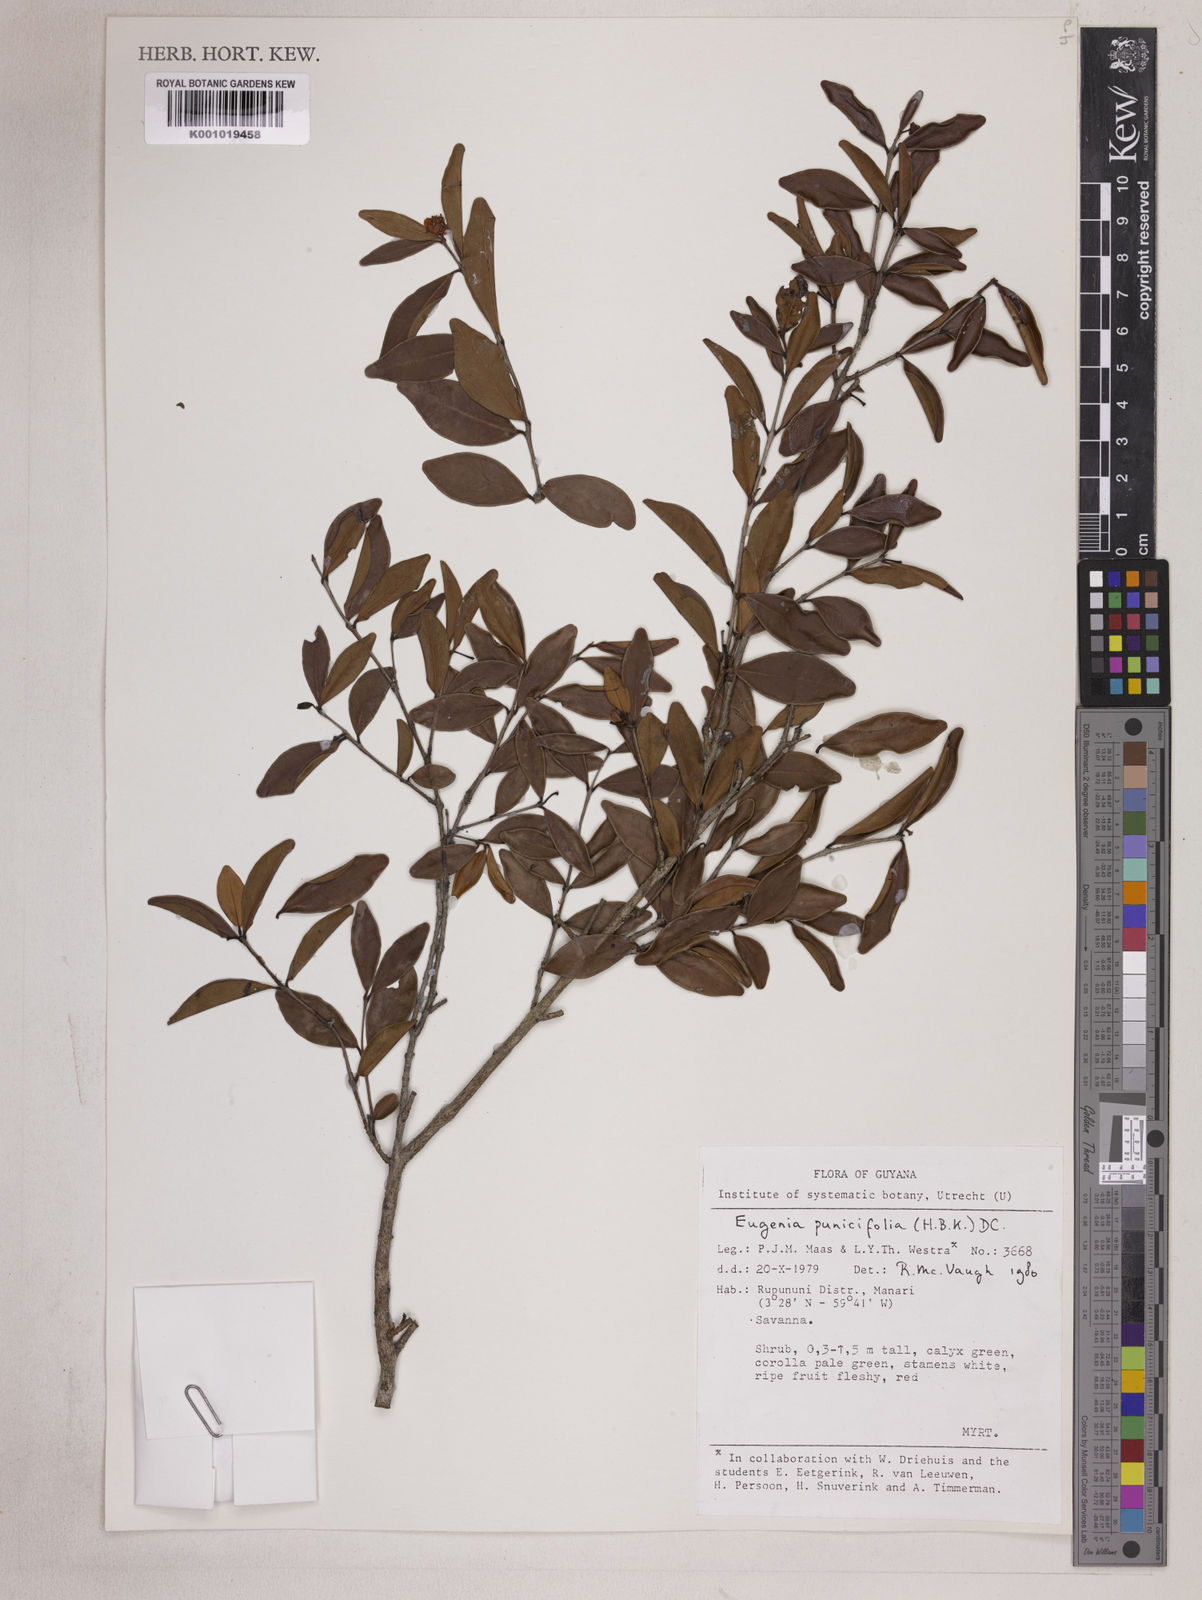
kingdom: Plantae
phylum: Tracheophyta
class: Magnoliopsida
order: Myrtales
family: Myrtaceae
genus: Eugenia
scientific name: Eugenia punicifolia
